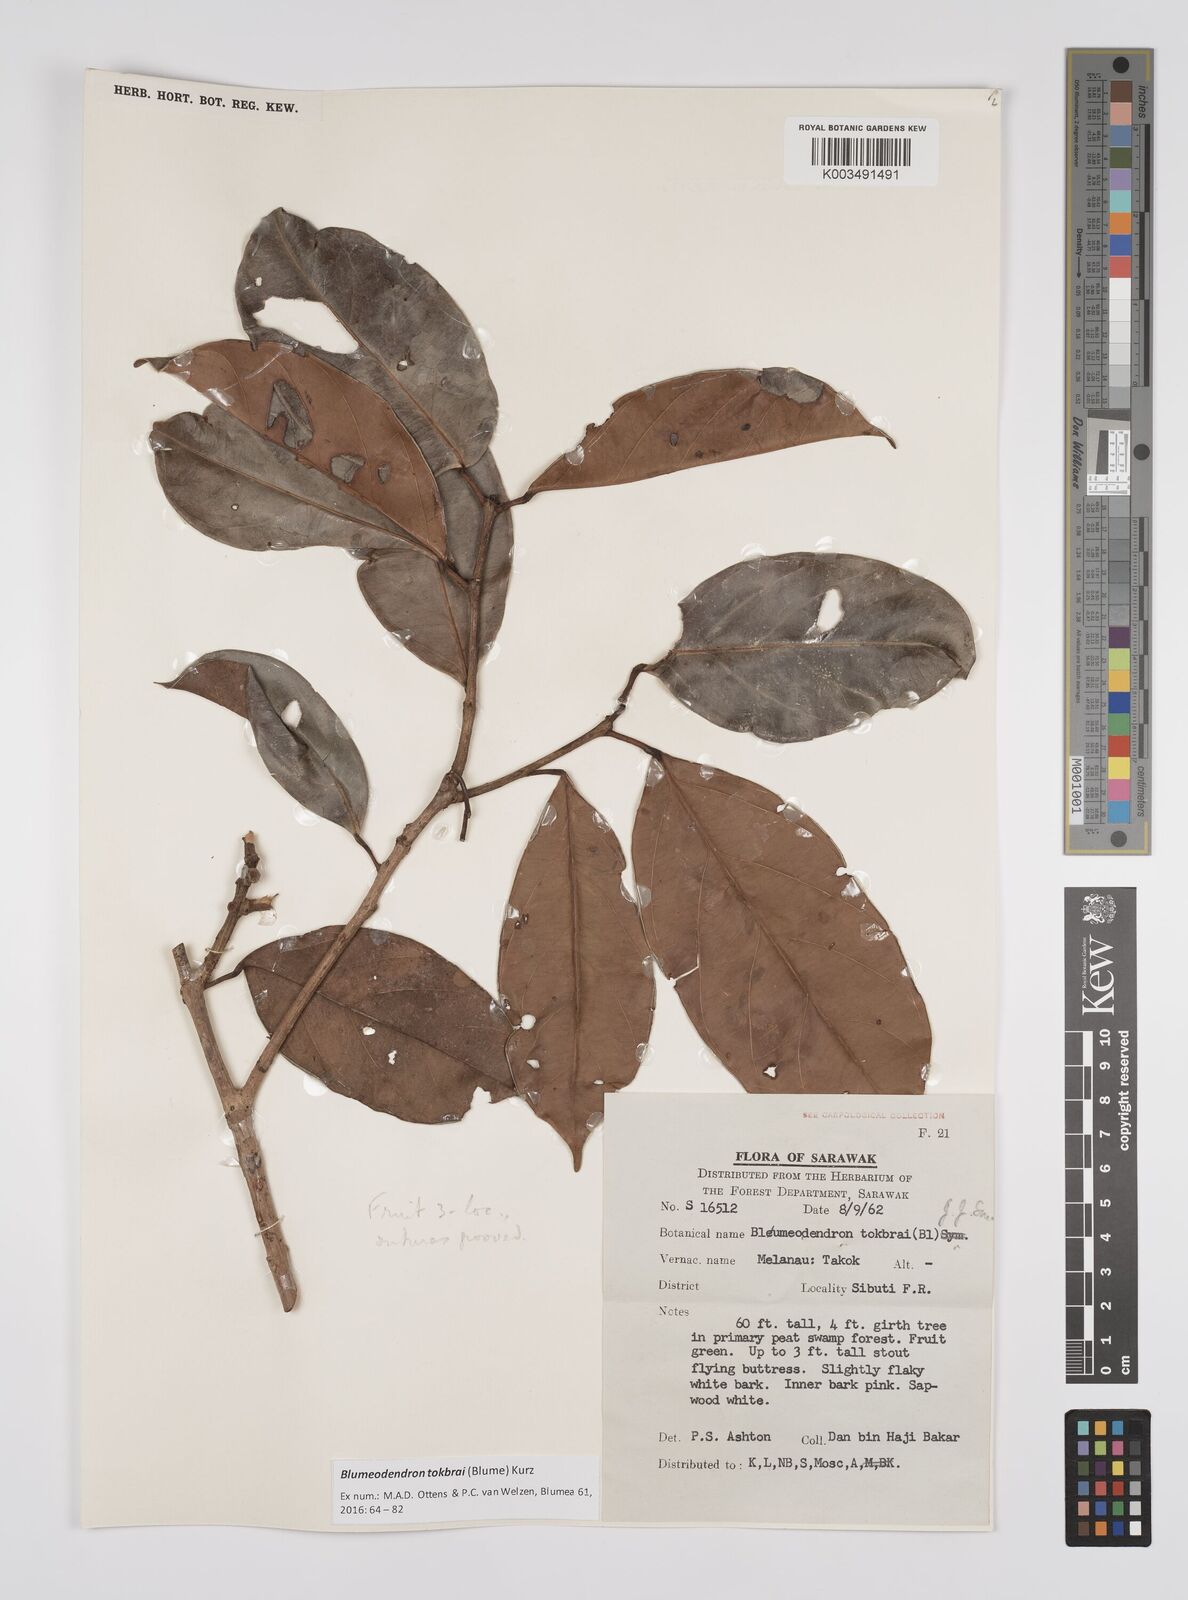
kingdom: Plantae
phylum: Tracheophyta
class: Magnoliopsida
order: Malpighiales
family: Euphorbiaceae
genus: Blumeodendron
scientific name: Blumeodendron tokbrai
